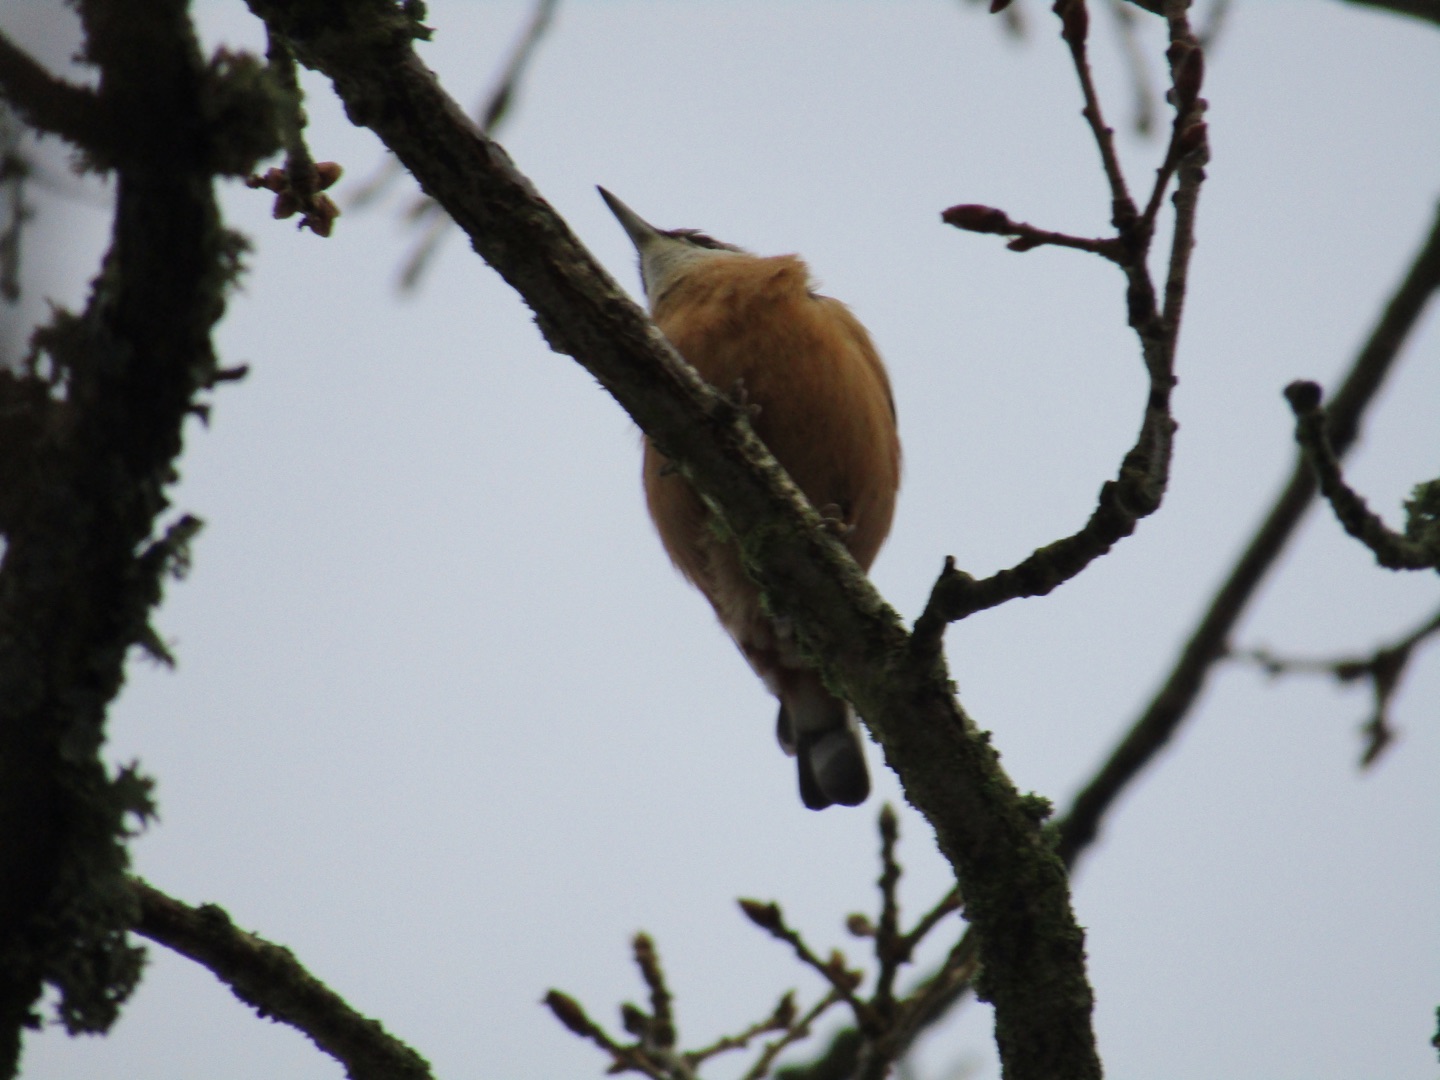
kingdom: Animalia
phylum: Chordata
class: Aves
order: Passeriformes
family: Sittidae
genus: Sitta
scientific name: Sitta europaea
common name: Spætmejse
